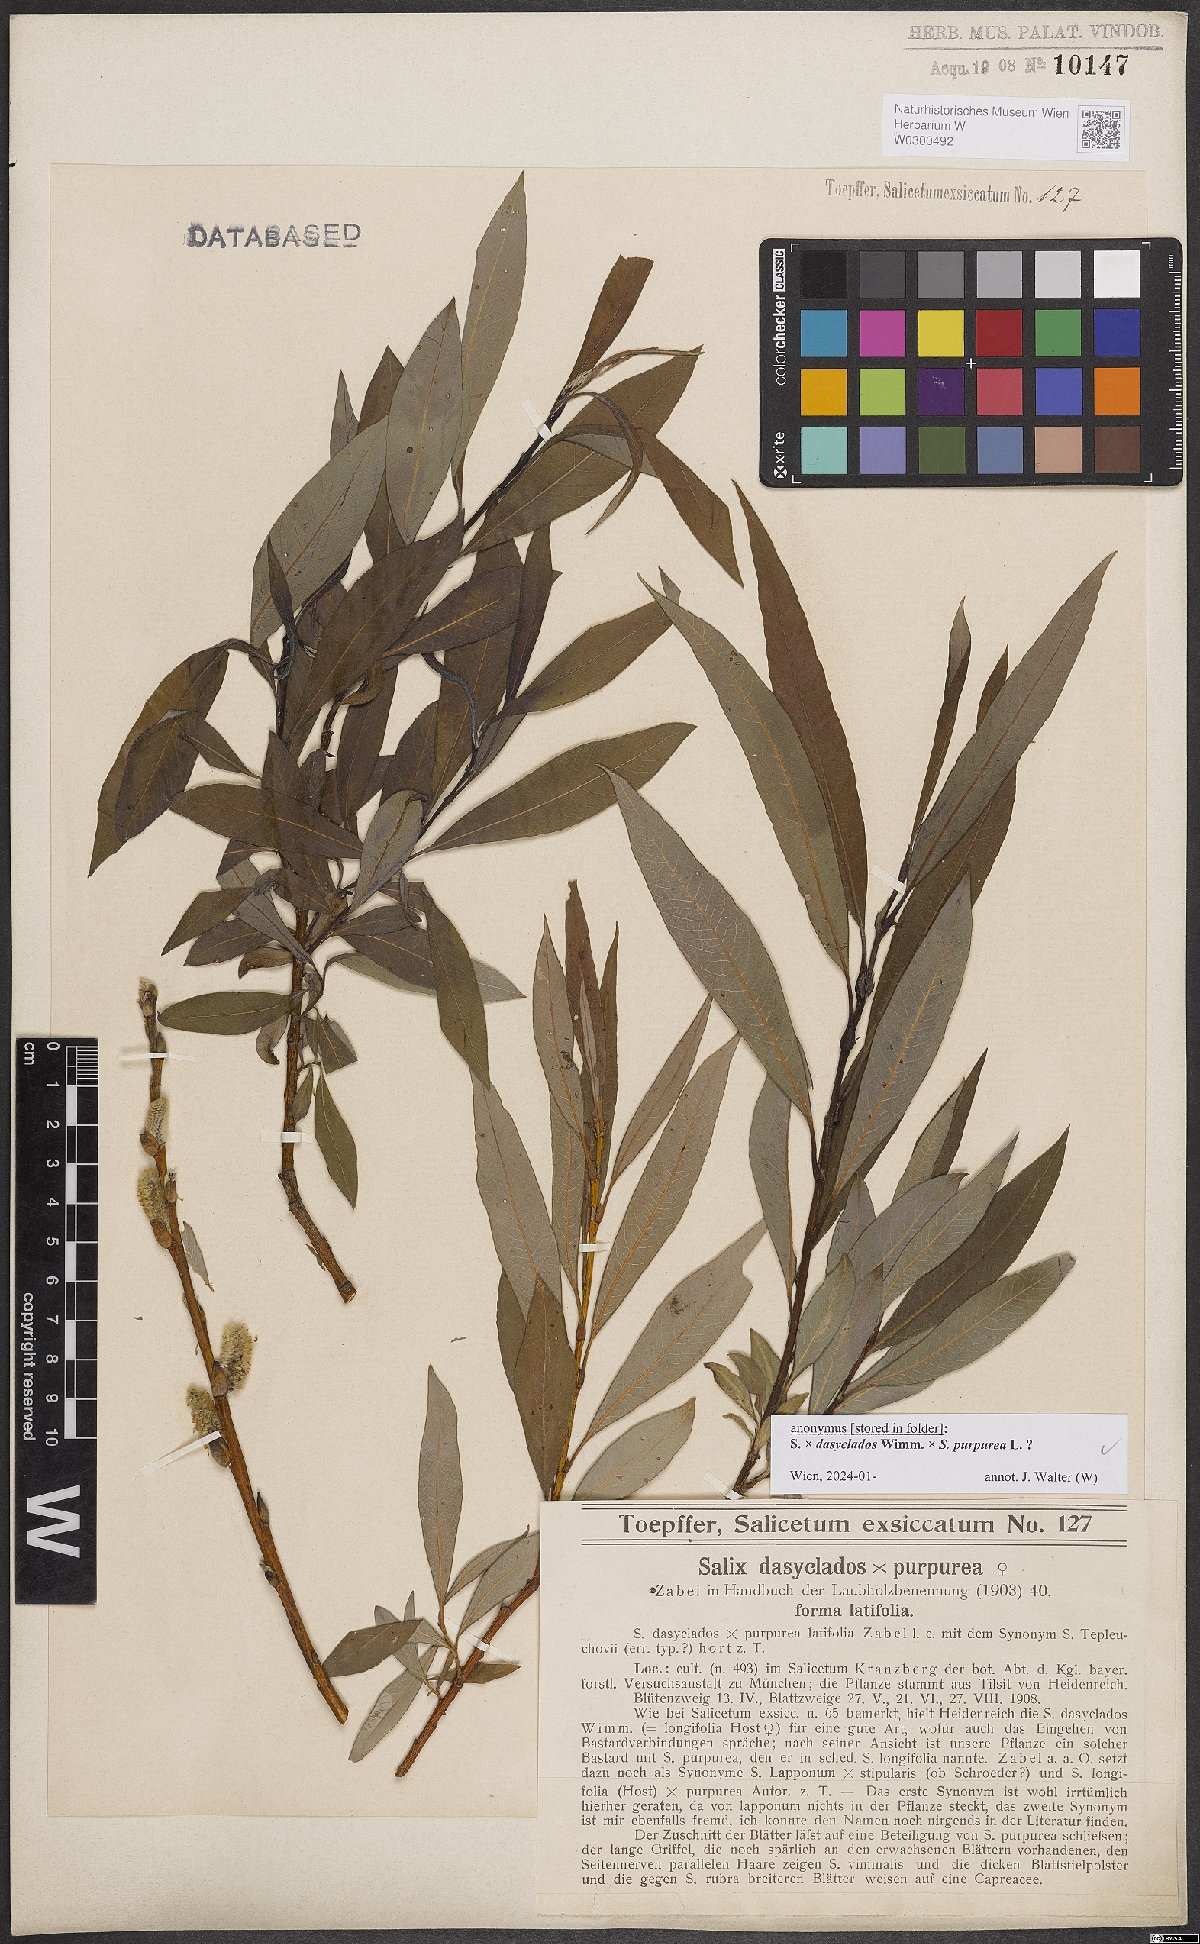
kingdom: Plantae
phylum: Tracheophyta
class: Magnoliopsida
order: Malpighiales
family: Salicaceae
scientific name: Salicaceae
